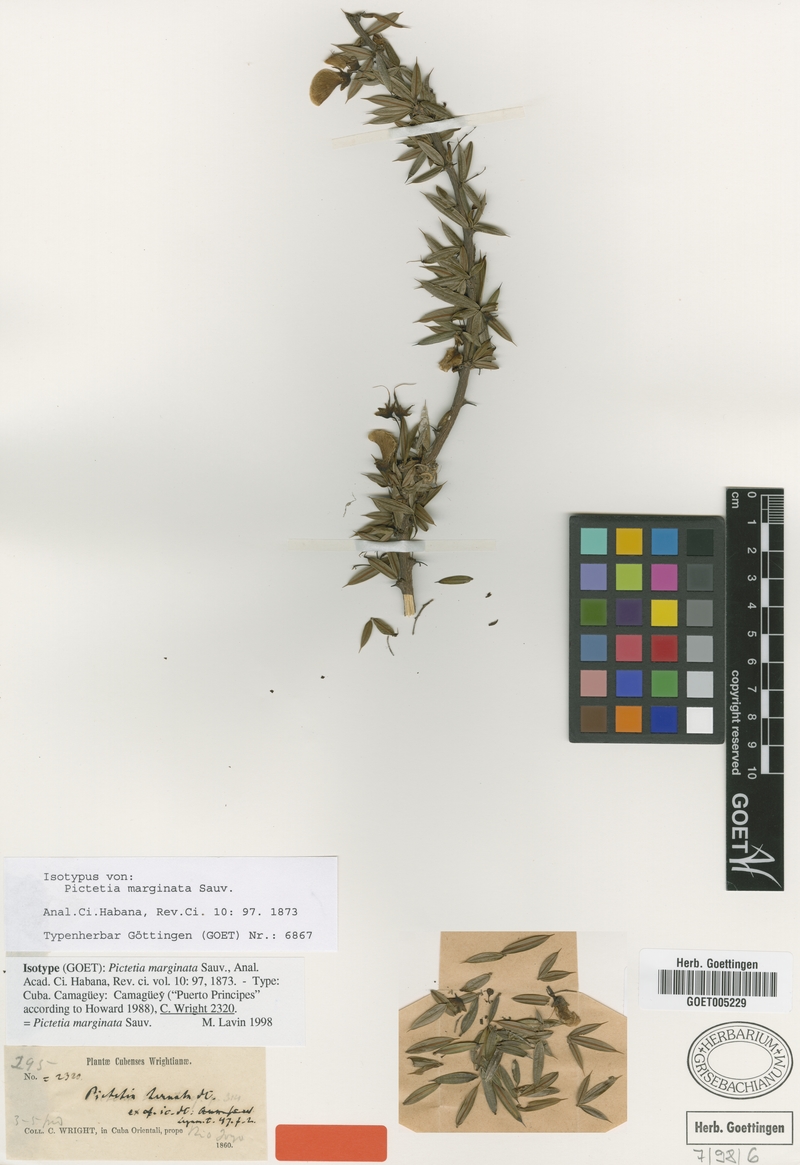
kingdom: Plantae
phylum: Tracheophyta
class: Magnoliopsida
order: Fabales
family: Fabaceae
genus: Pictetia
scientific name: Pictetia marginata
